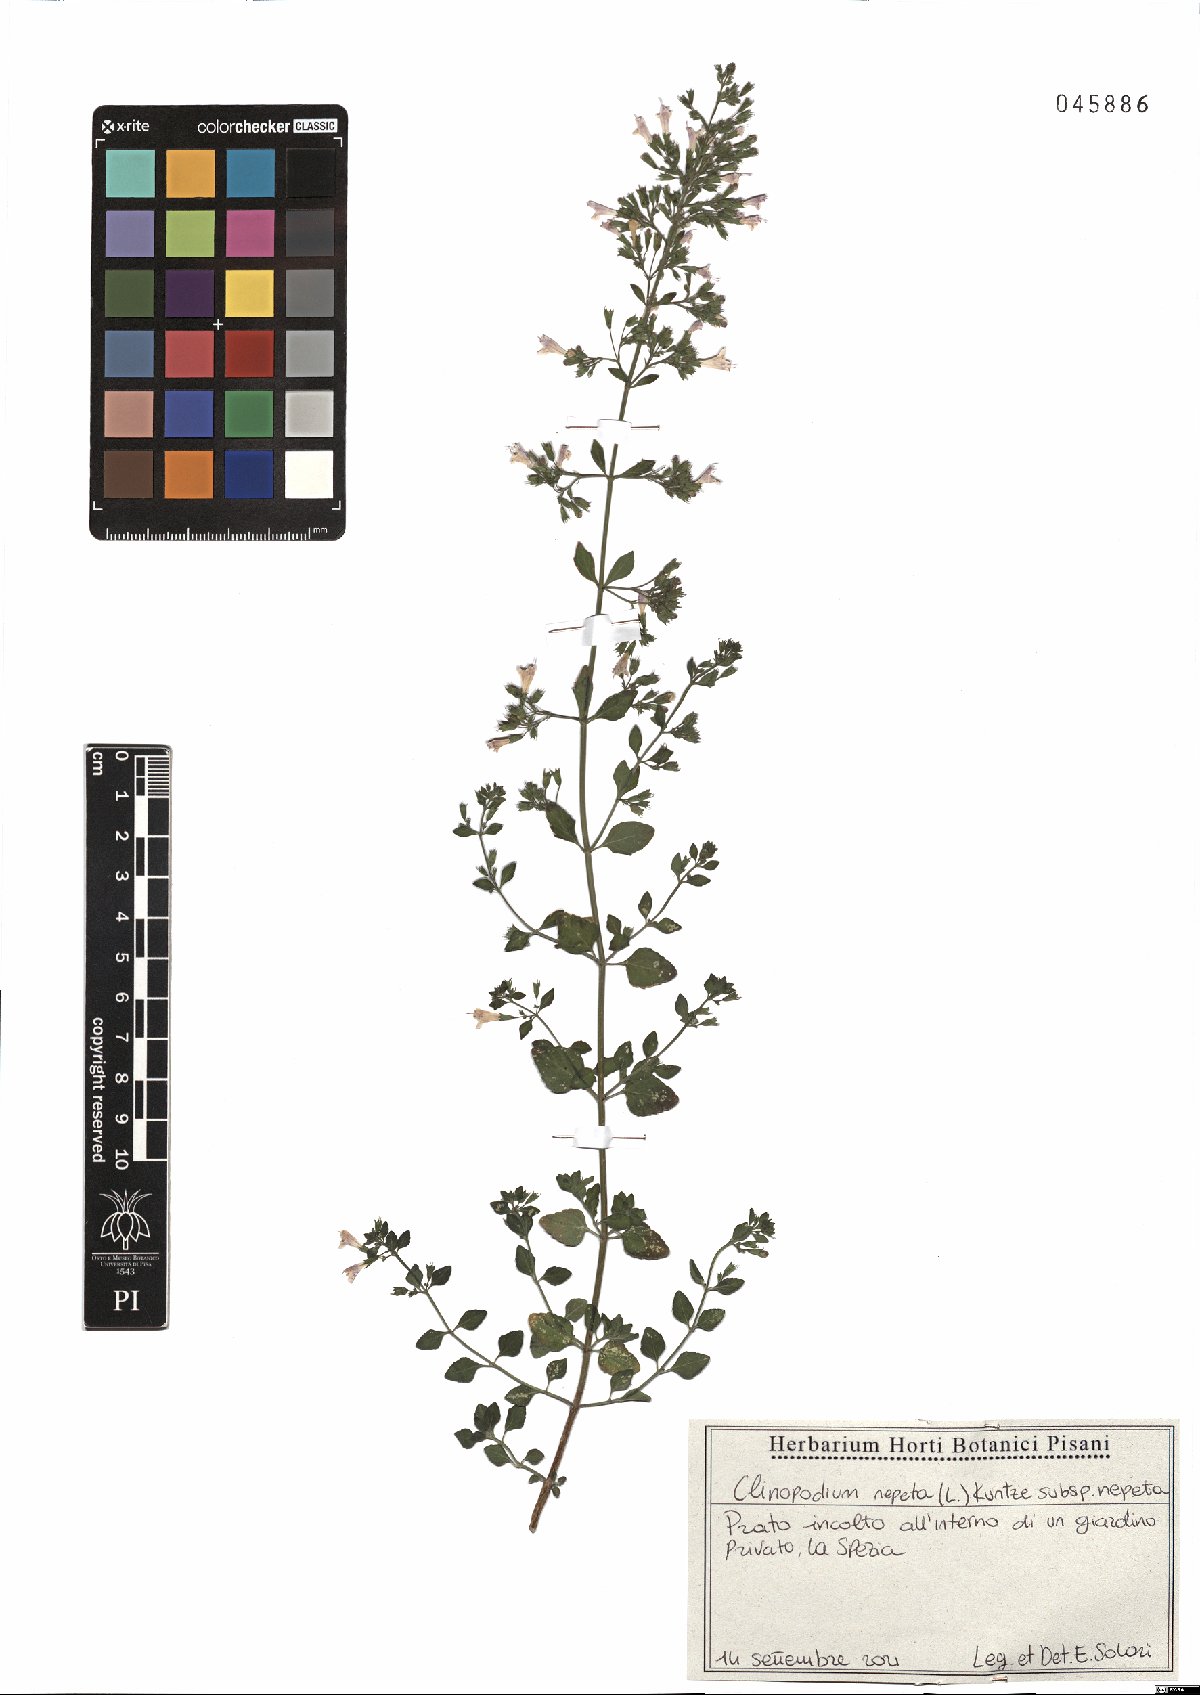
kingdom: Plantae
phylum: Tracheophyta
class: Magnoliopsida
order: Lamiales
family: Lamiaceae
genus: Clinopodium
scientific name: Clinopodium nepeta
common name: Lesser calamint
